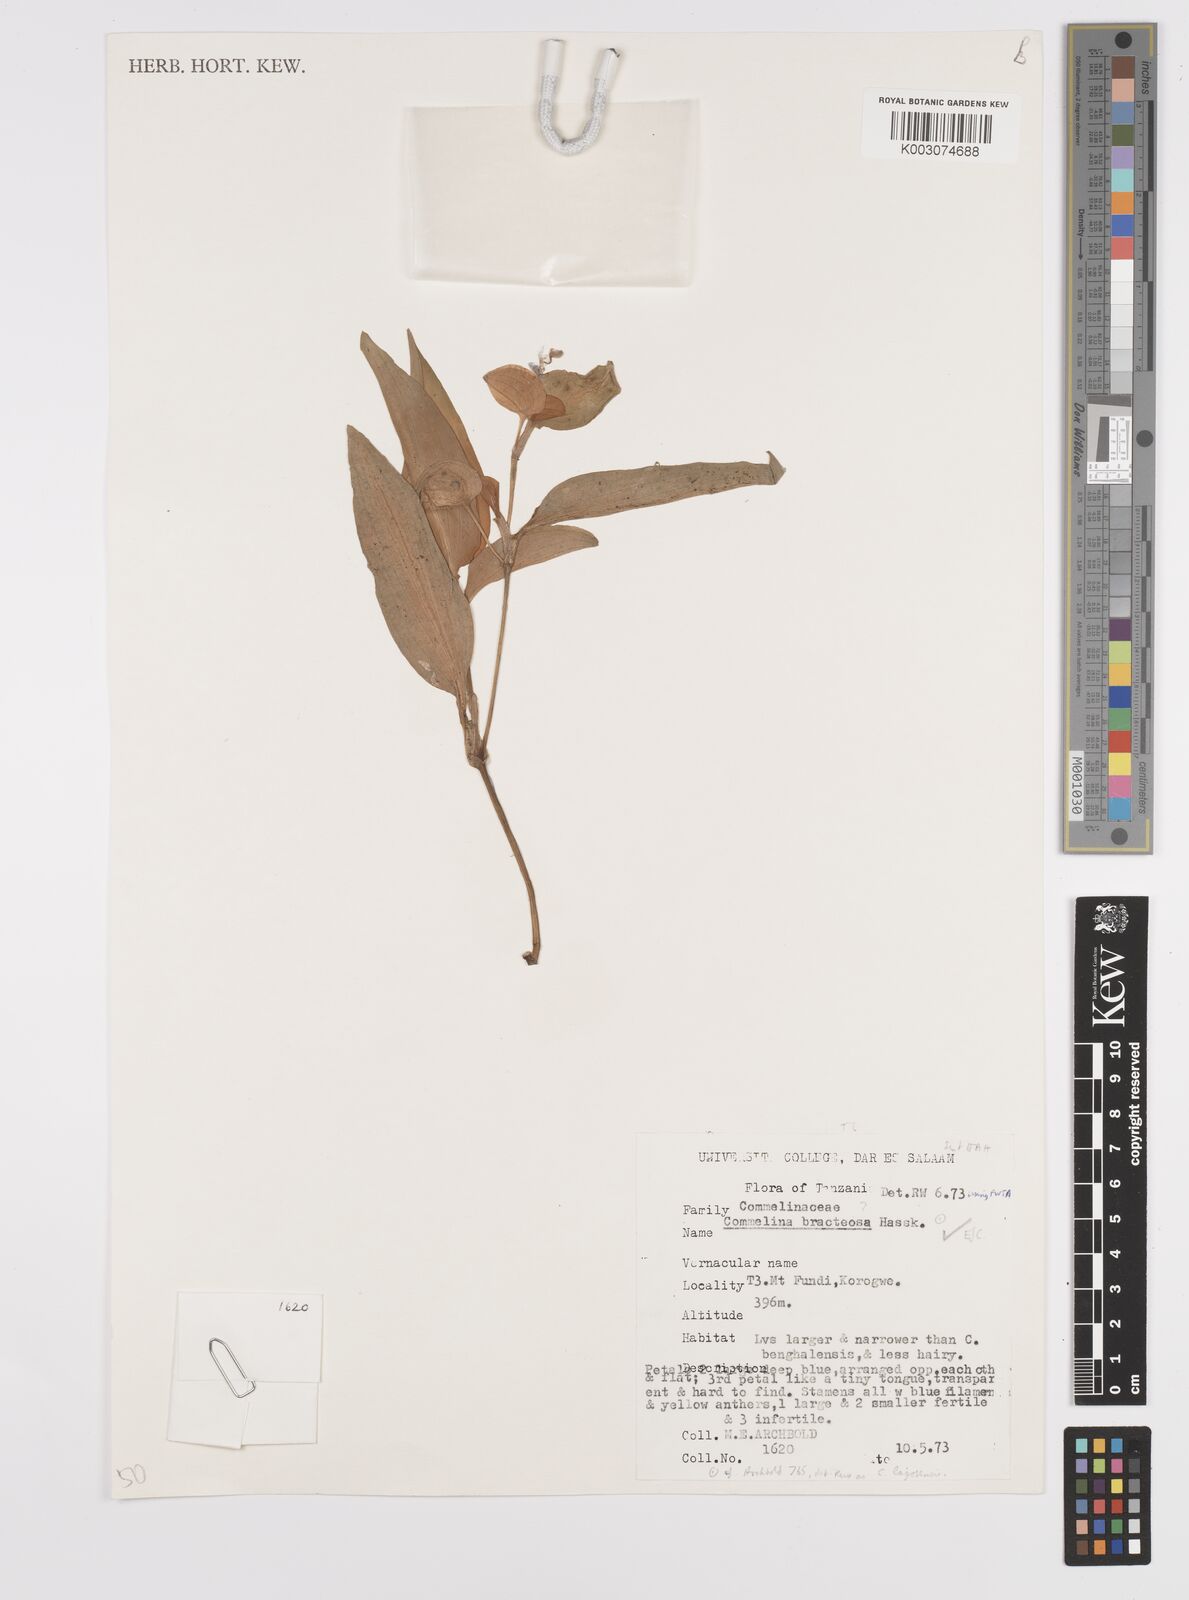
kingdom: Plantae
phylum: Tracheophyta
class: Liliopsida
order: Commelinales
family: Commelinaceae
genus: Commelina
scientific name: Commelina bracteosa
